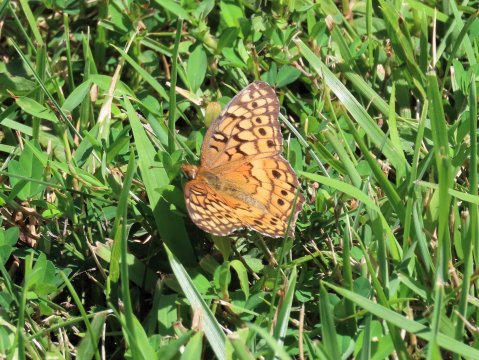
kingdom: Animalia
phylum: Arthropoda
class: Insecta
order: Lepidoptera
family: Nymphalidae
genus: Euptoieta
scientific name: Euptoieta claudia
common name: Variegated Fritillary
